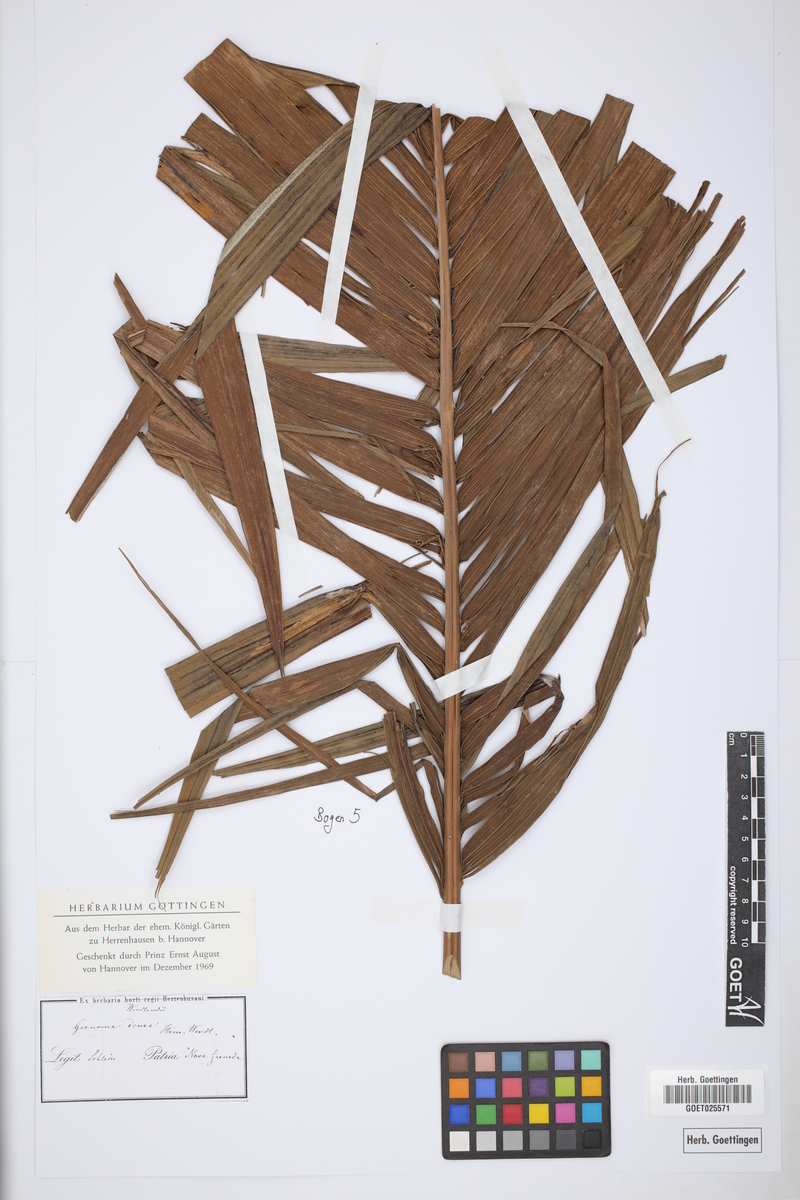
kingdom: Plantae
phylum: Tracheophyta
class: Liliopsida
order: Arecales
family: Arecaceae
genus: Geonoma
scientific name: Geonoma undata
